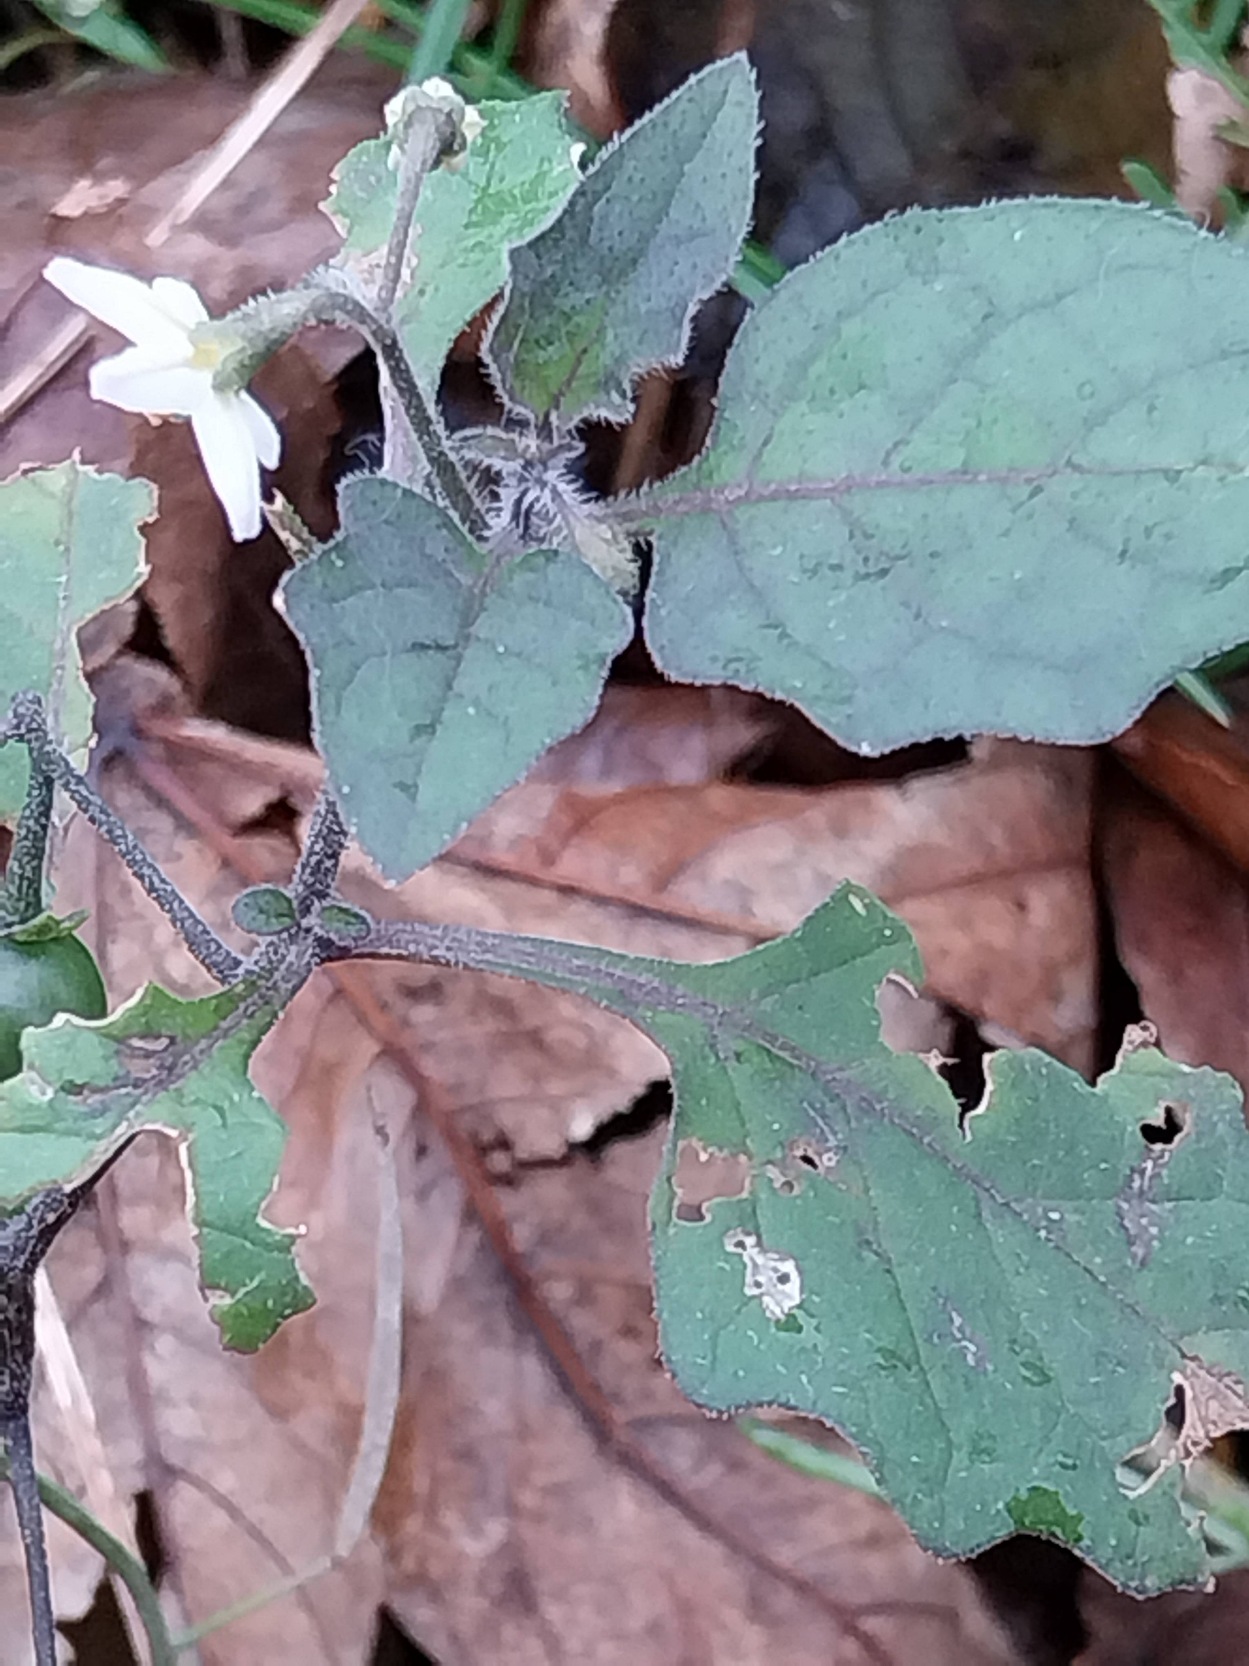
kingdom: Plantae
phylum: Tracheophyta
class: Magnoliopsida
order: Solanales
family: Solanaceae
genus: Solanum
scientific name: Solanum decipiens
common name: Kirtel-natskygge
